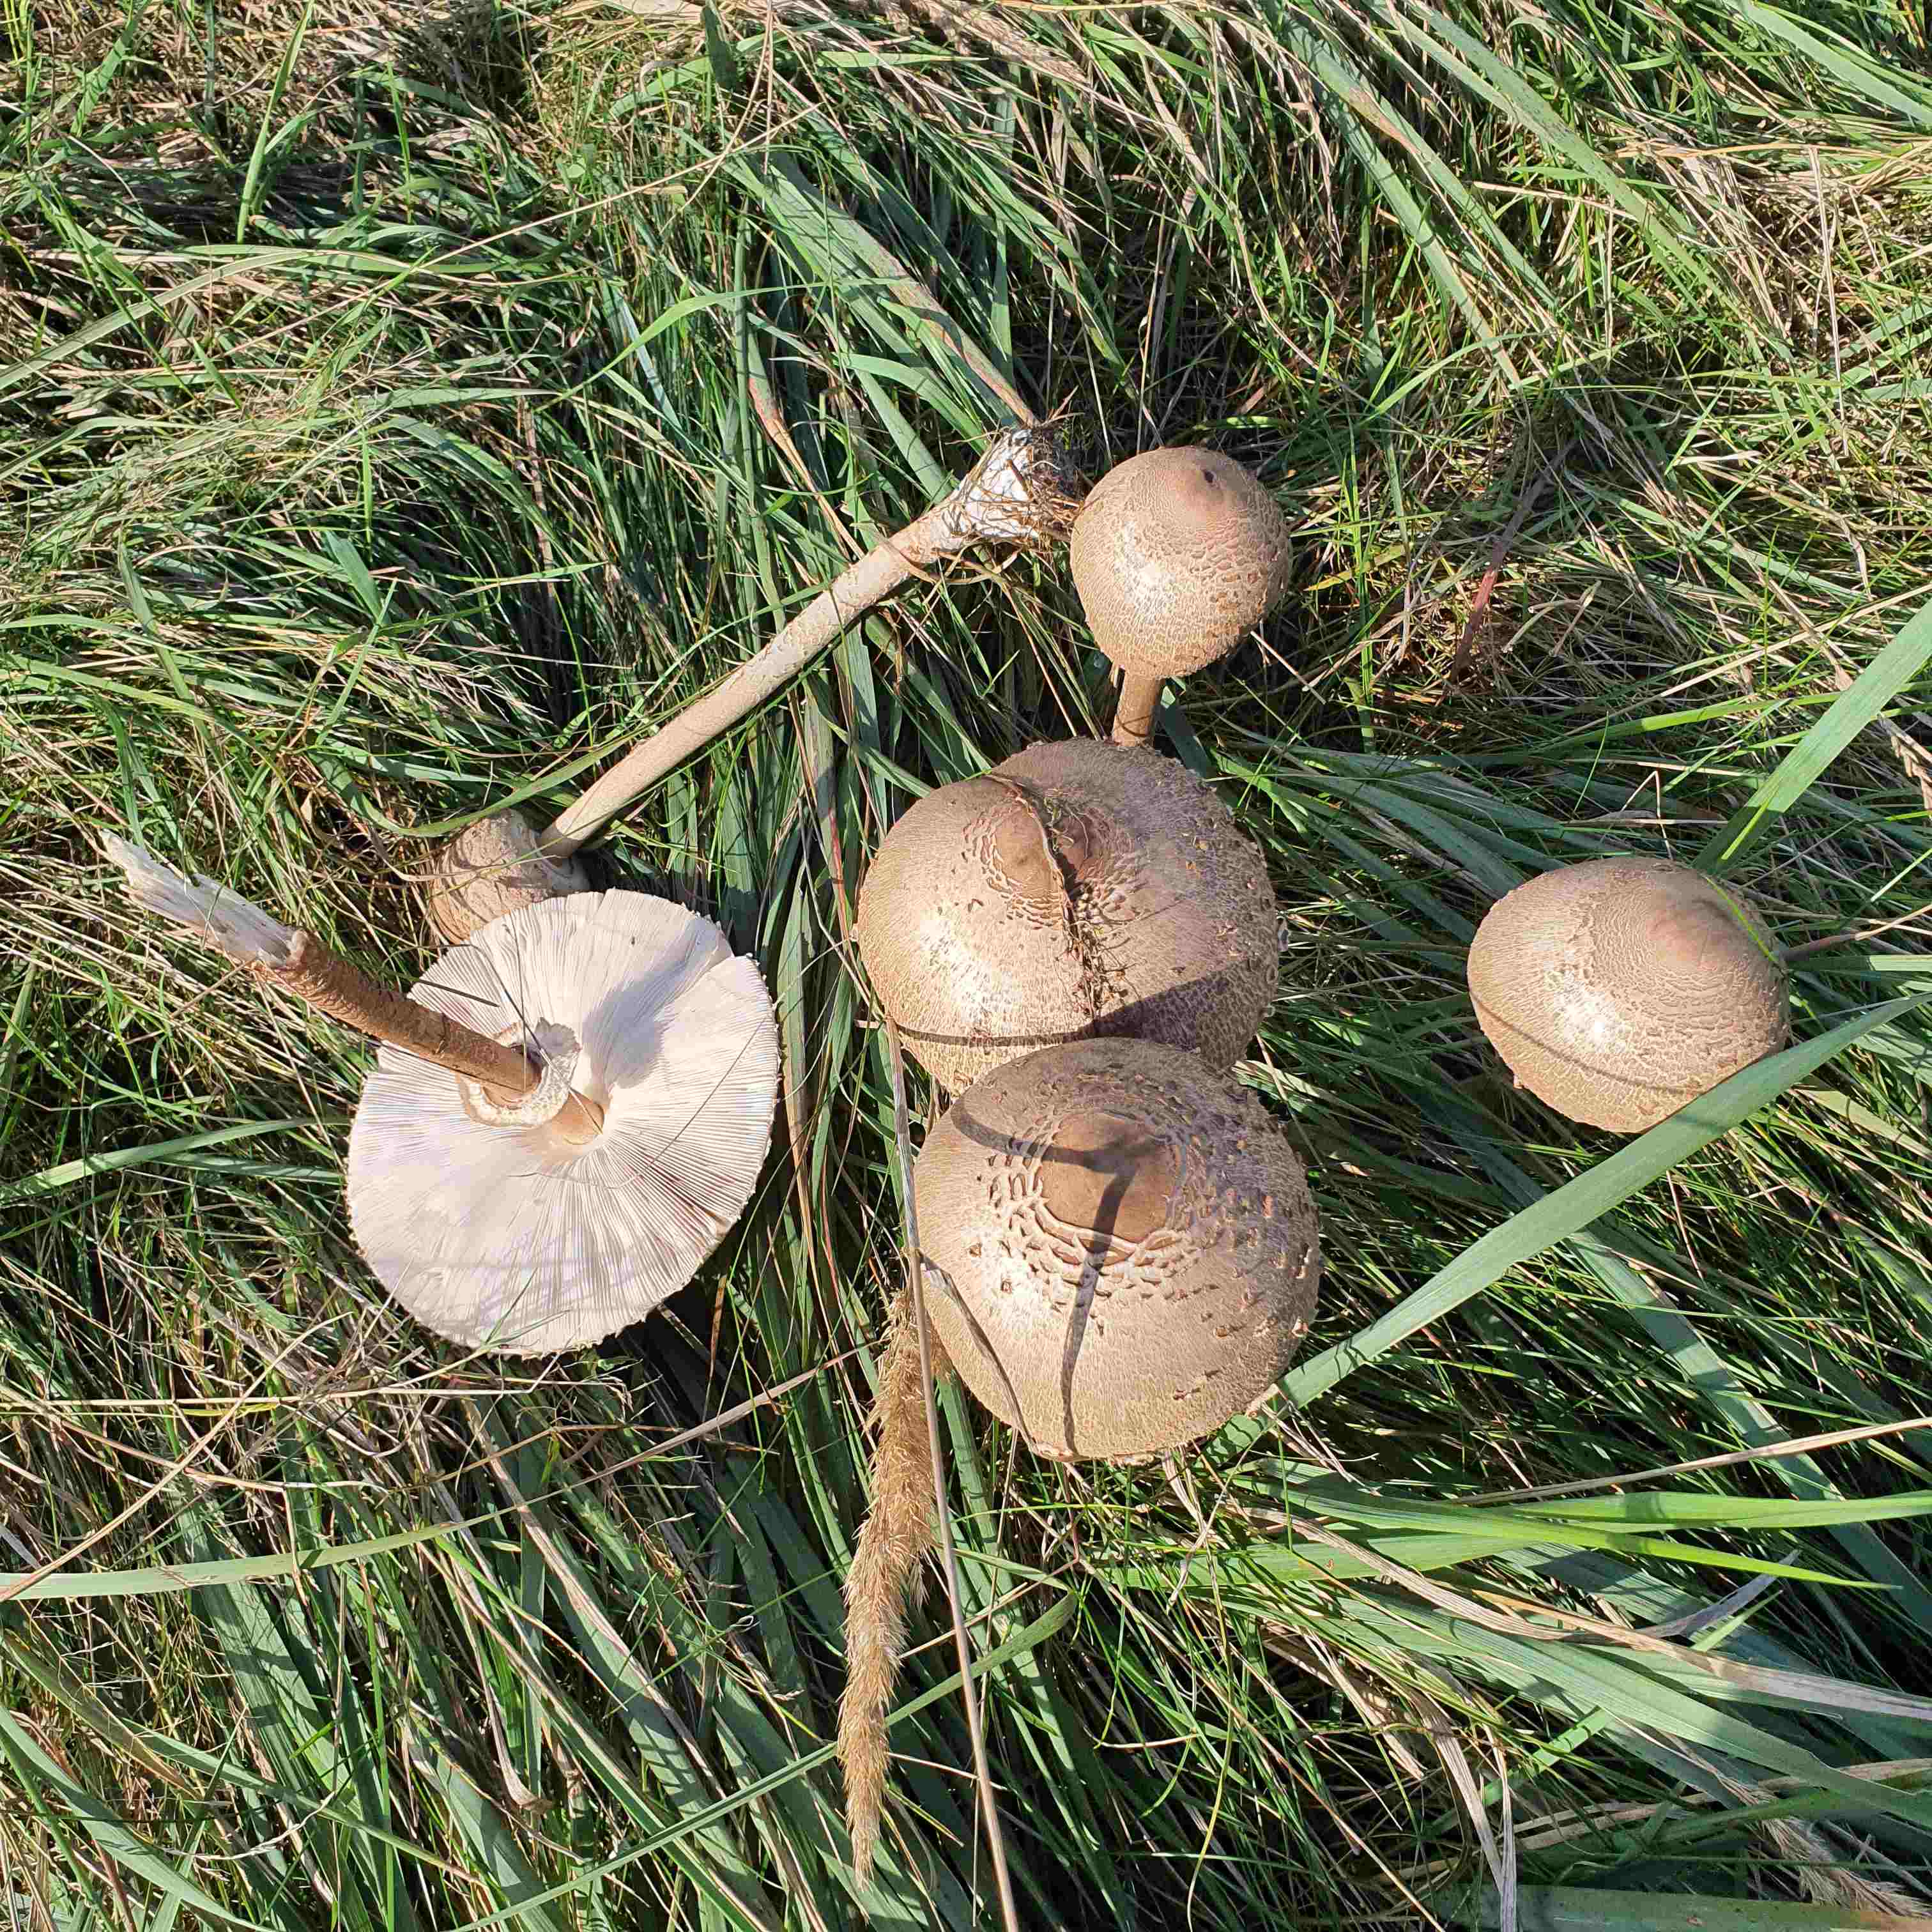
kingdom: Fungi
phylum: Basidiomycota
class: Agaricomycetes
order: Agaricales
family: Agaricaceae
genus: Macrolepiota
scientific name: Macrolepiota procera
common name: stor kæmpeparasolhat
